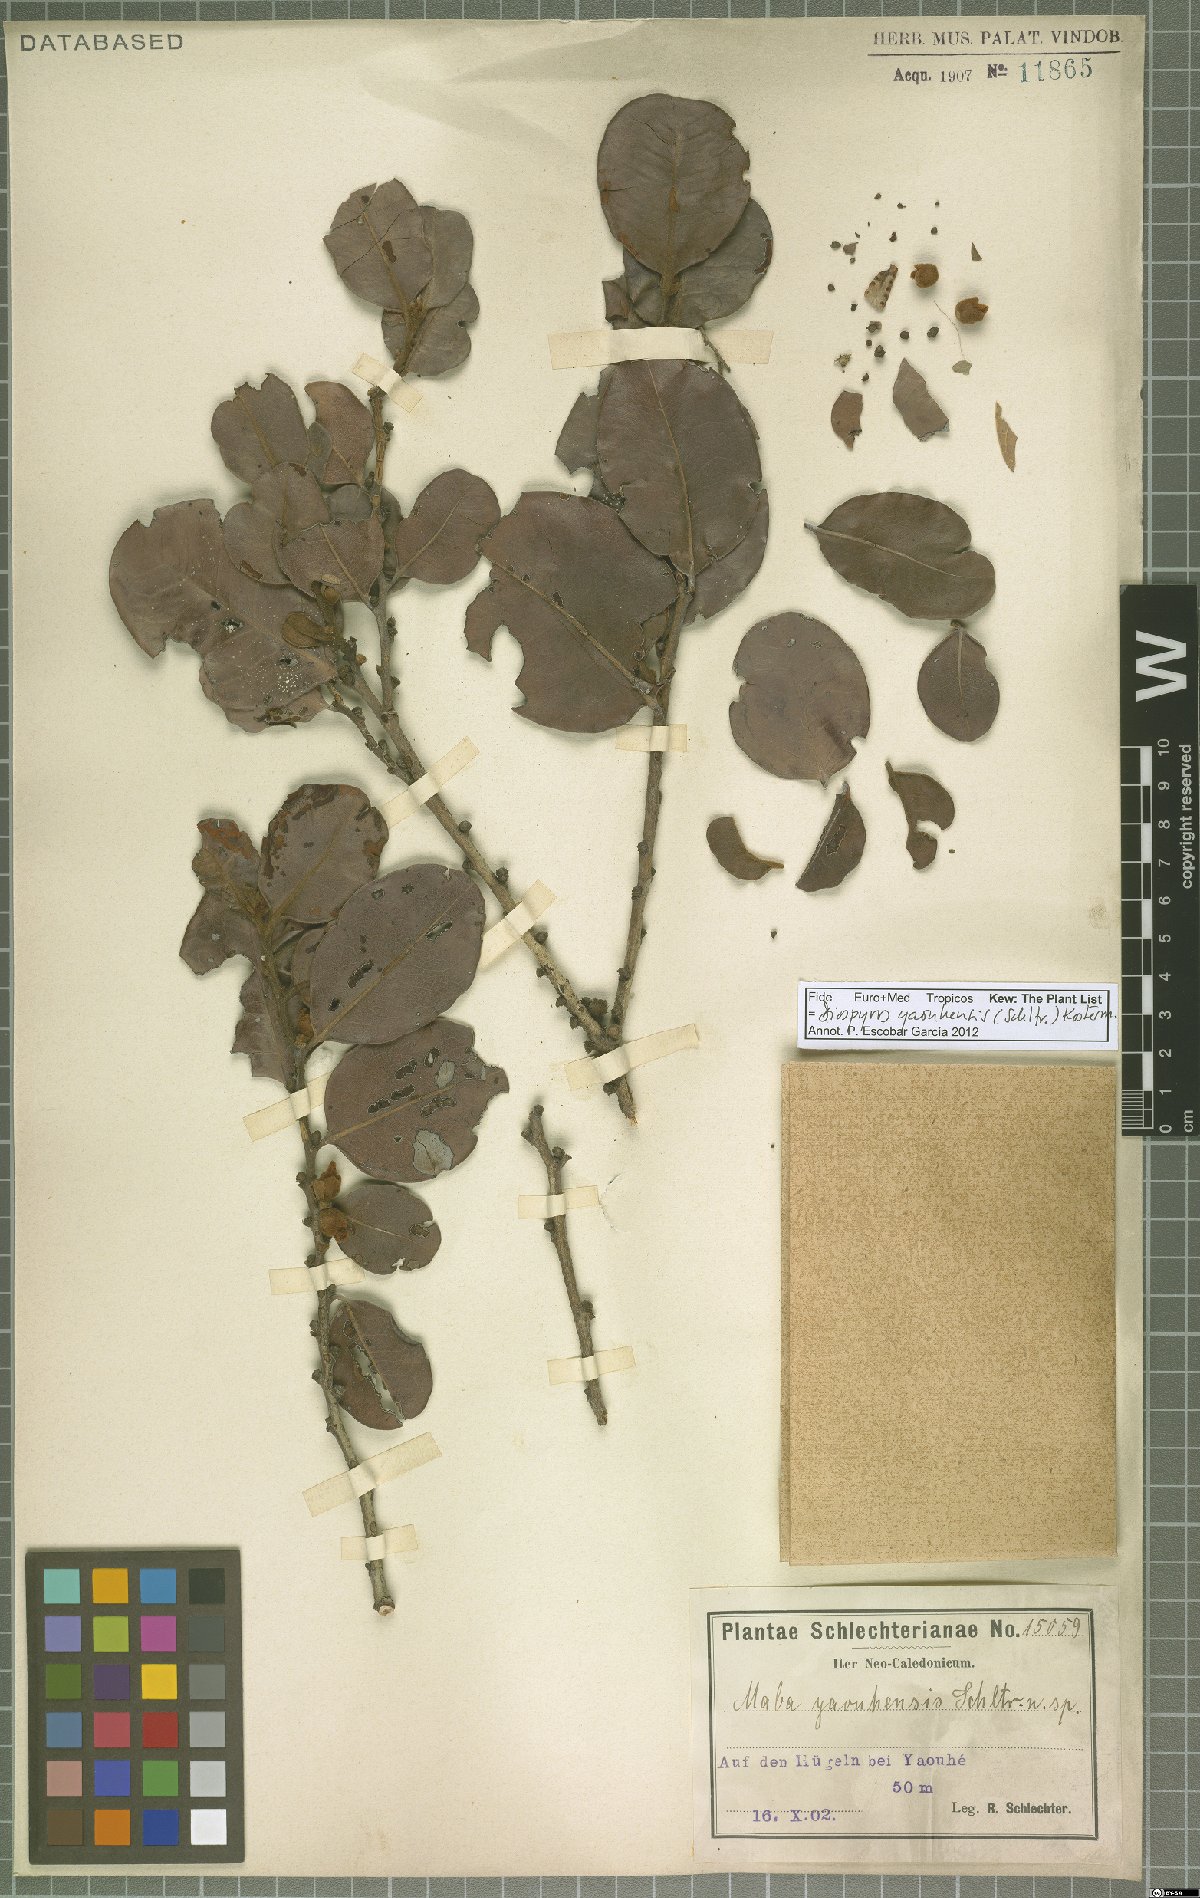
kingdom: Plantae
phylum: Tracheophyta
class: Magnoliopsida
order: Ericales
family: Ebenaceae
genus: Diospyros
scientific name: Diospyros yaouhensis
